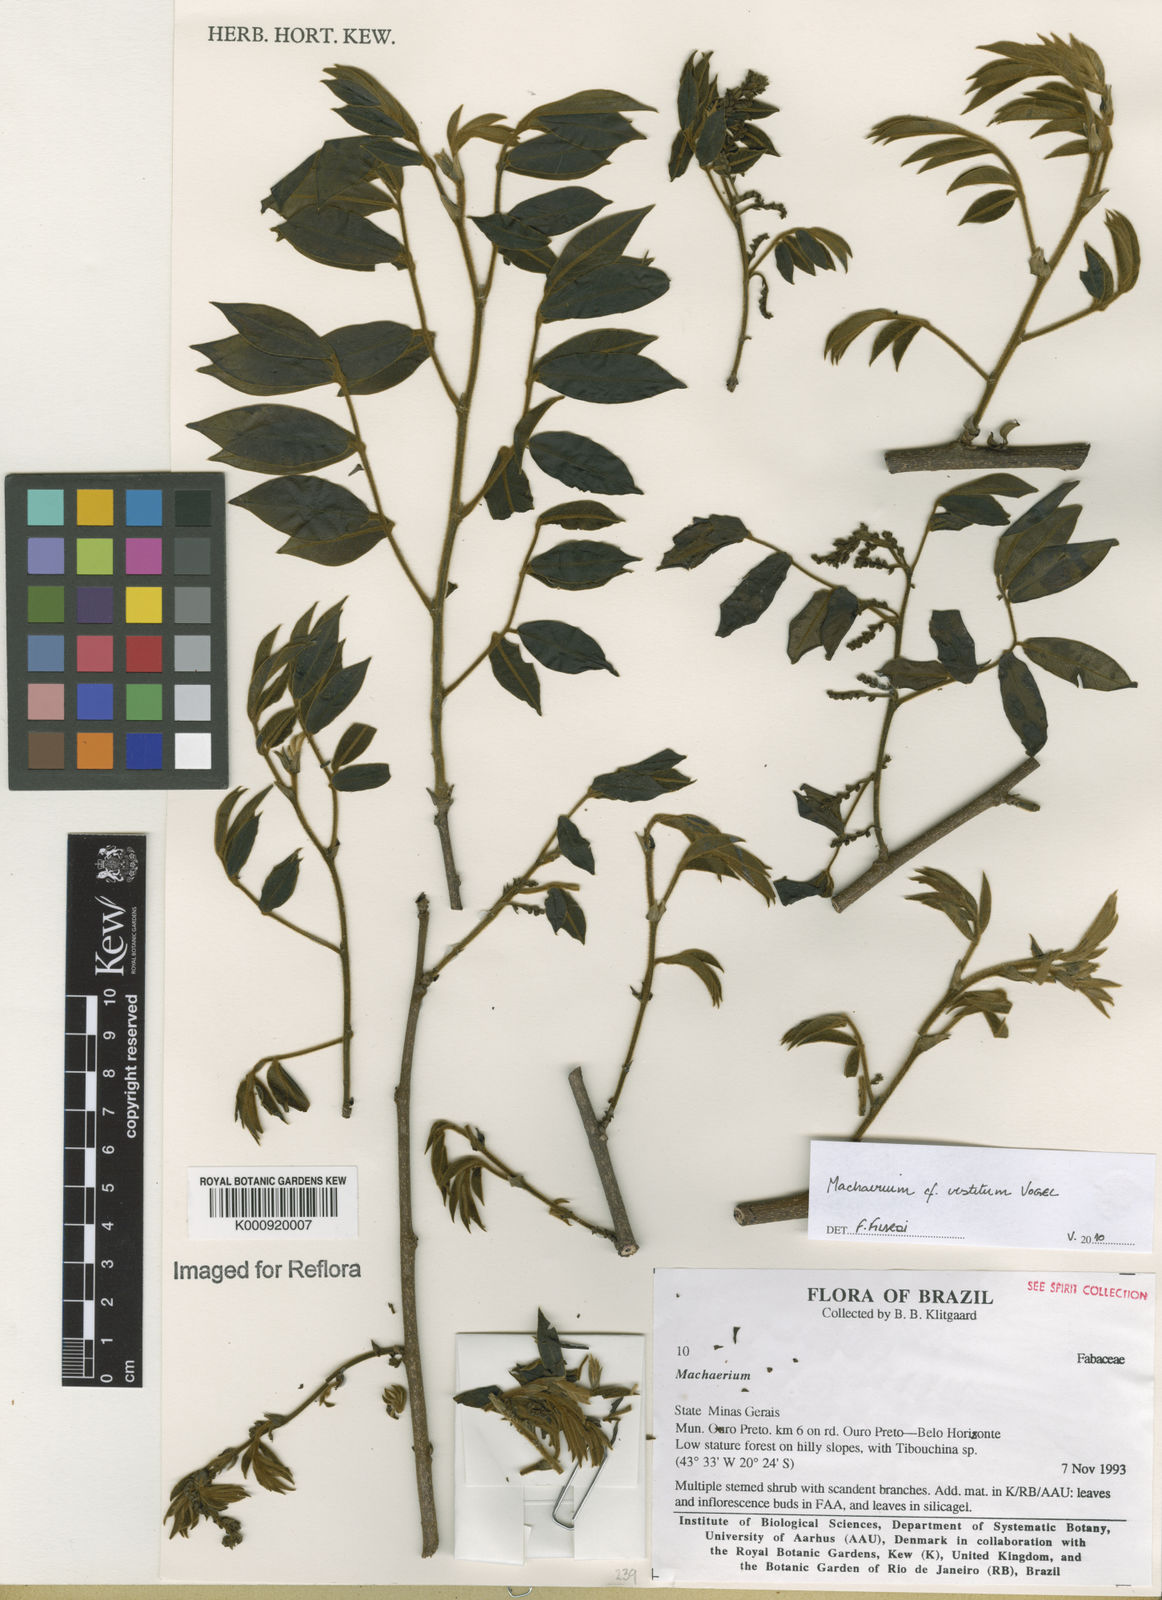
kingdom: Plantae
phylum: Tracheophyta
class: Magnoliopsida
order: Fabales
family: Fabaceae
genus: Machaerium
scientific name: Machaerium brasiliense
